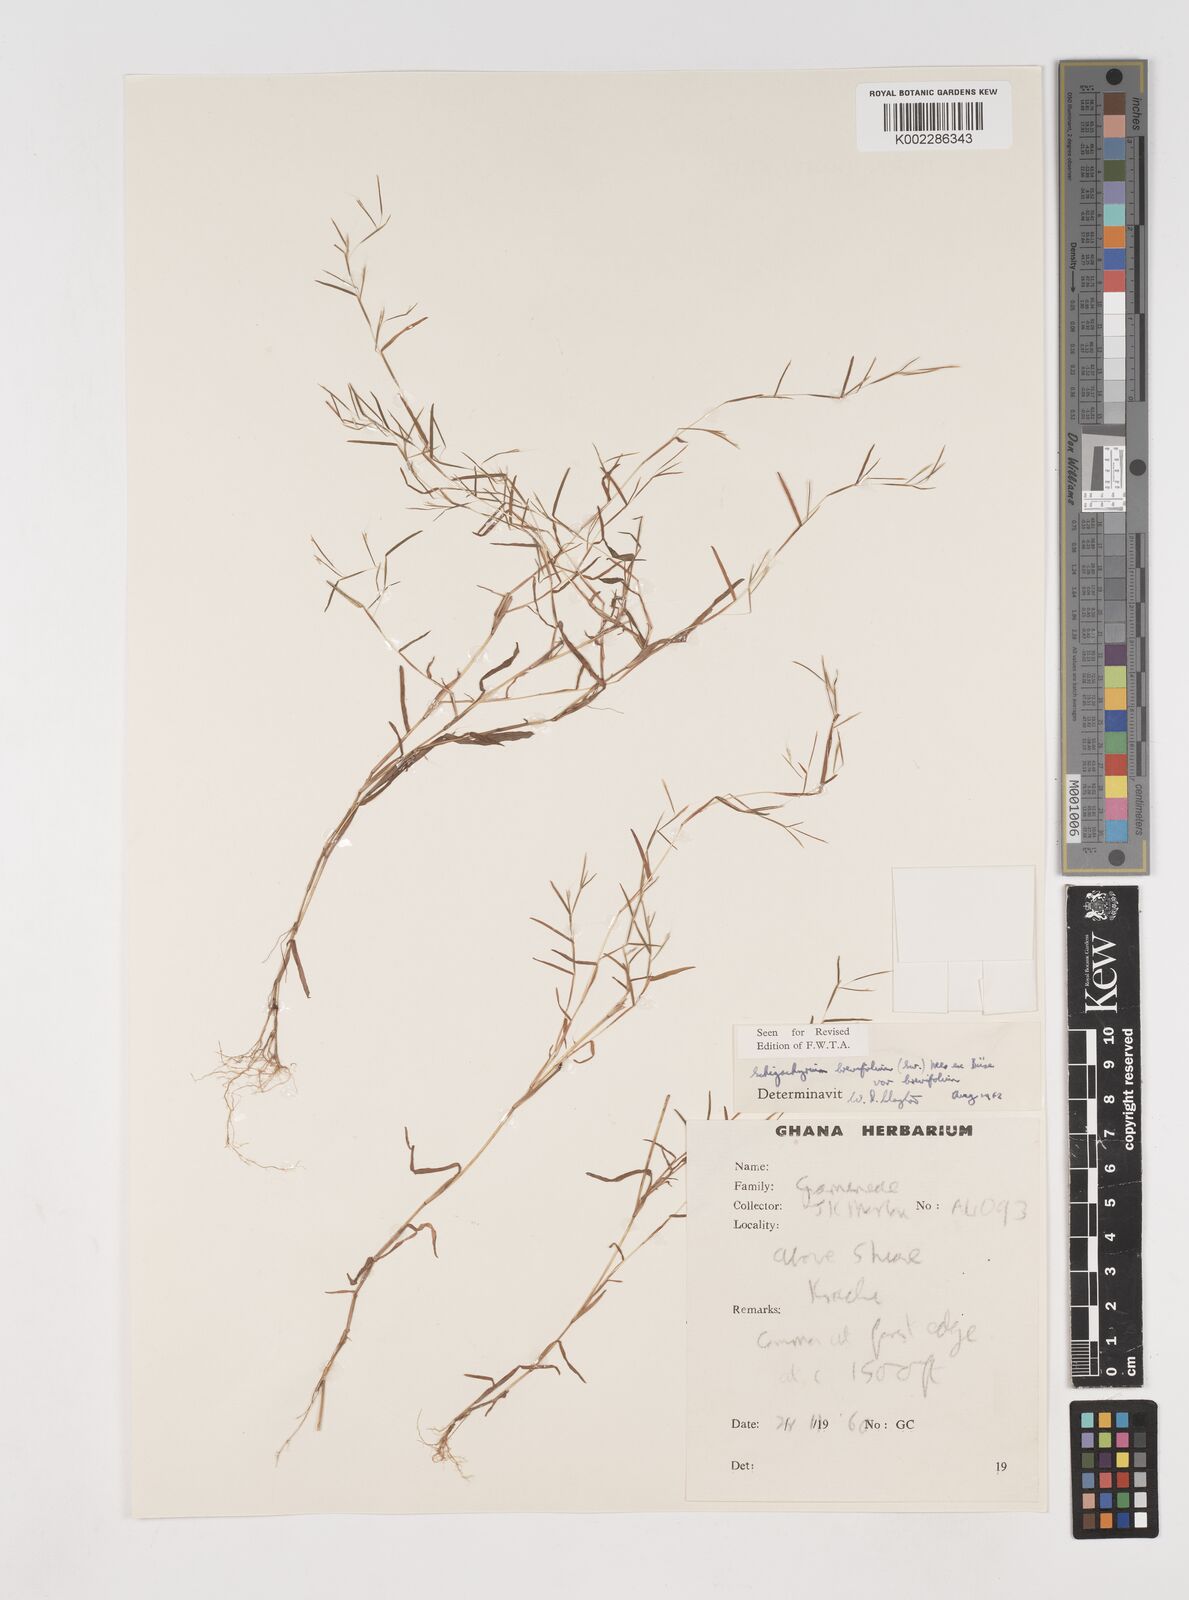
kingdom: Plantae
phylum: Tracheophyta
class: Liliopsida
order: Poales
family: Poaceae
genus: Schizachyrium
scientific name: Schizachyrium brevifolium
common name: Serillo dulce
